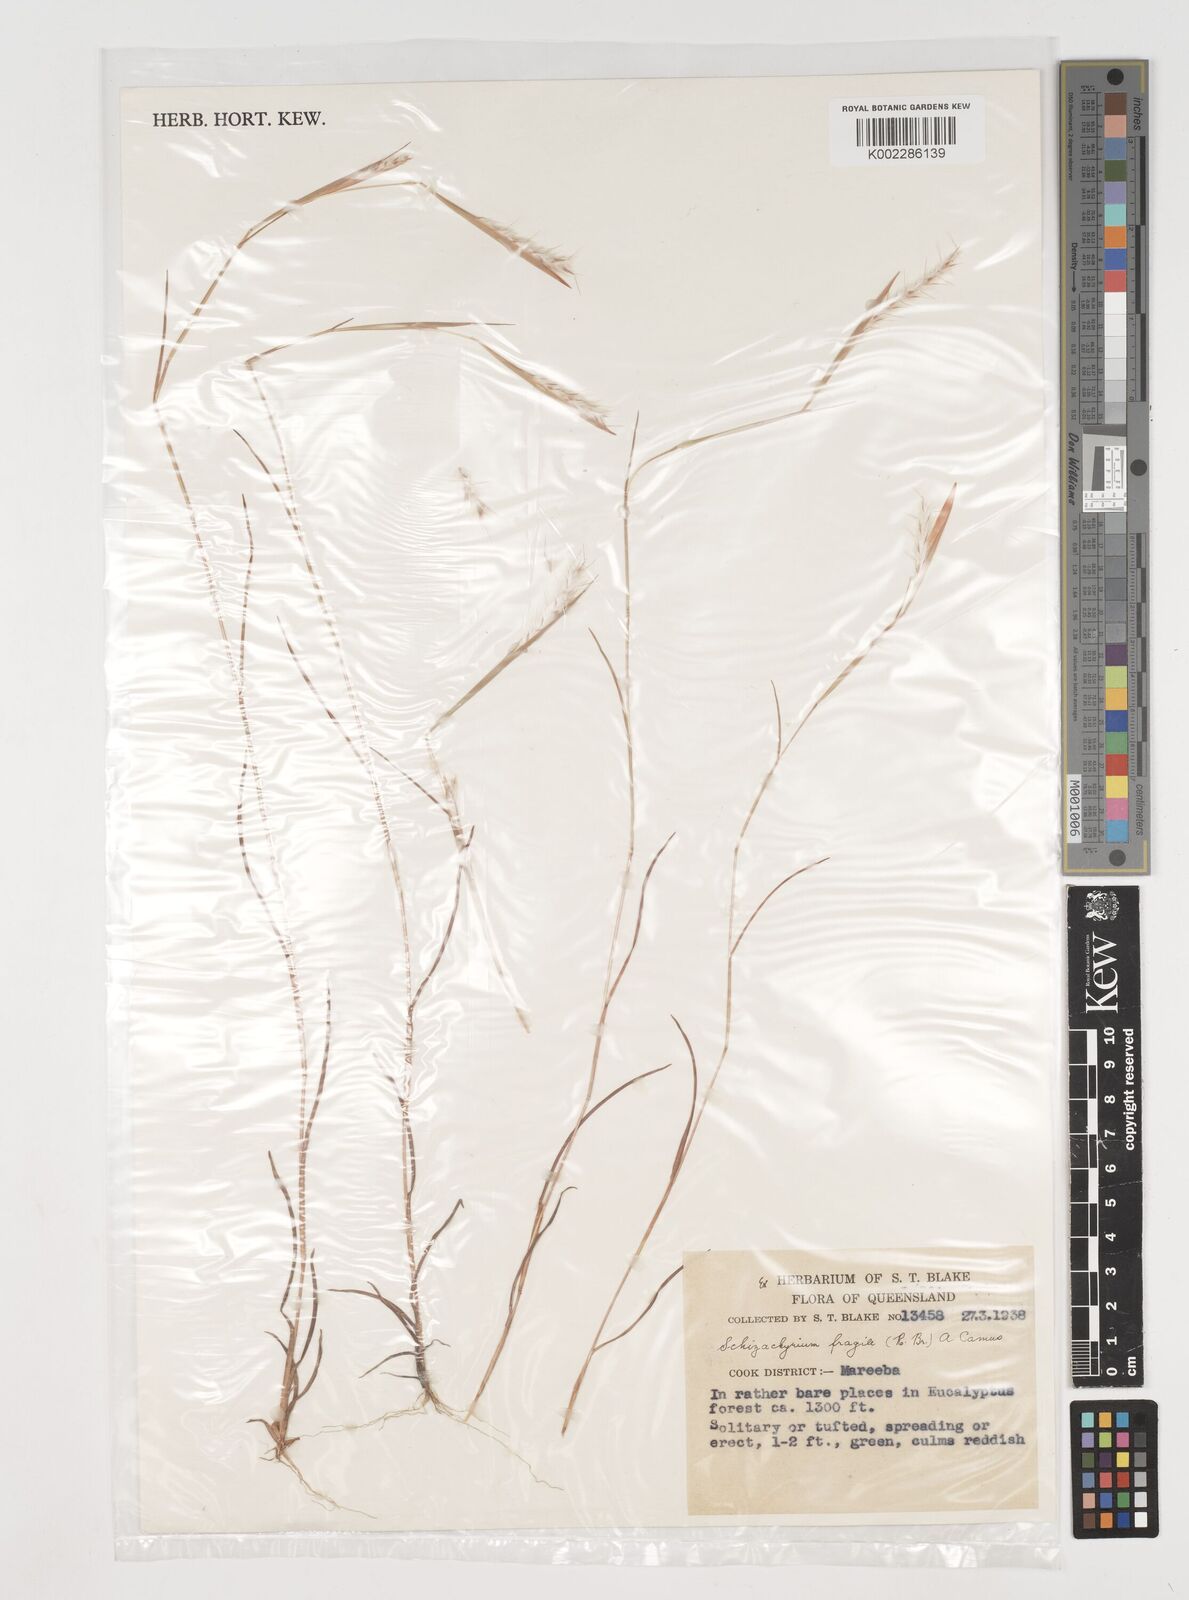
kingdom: Plantae
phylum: Tracheophyta
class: Liliopsida
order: Poales
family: Poaceae
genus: Schizachyrium
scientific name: Schizachyrium fragile
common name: Red spathe grass
